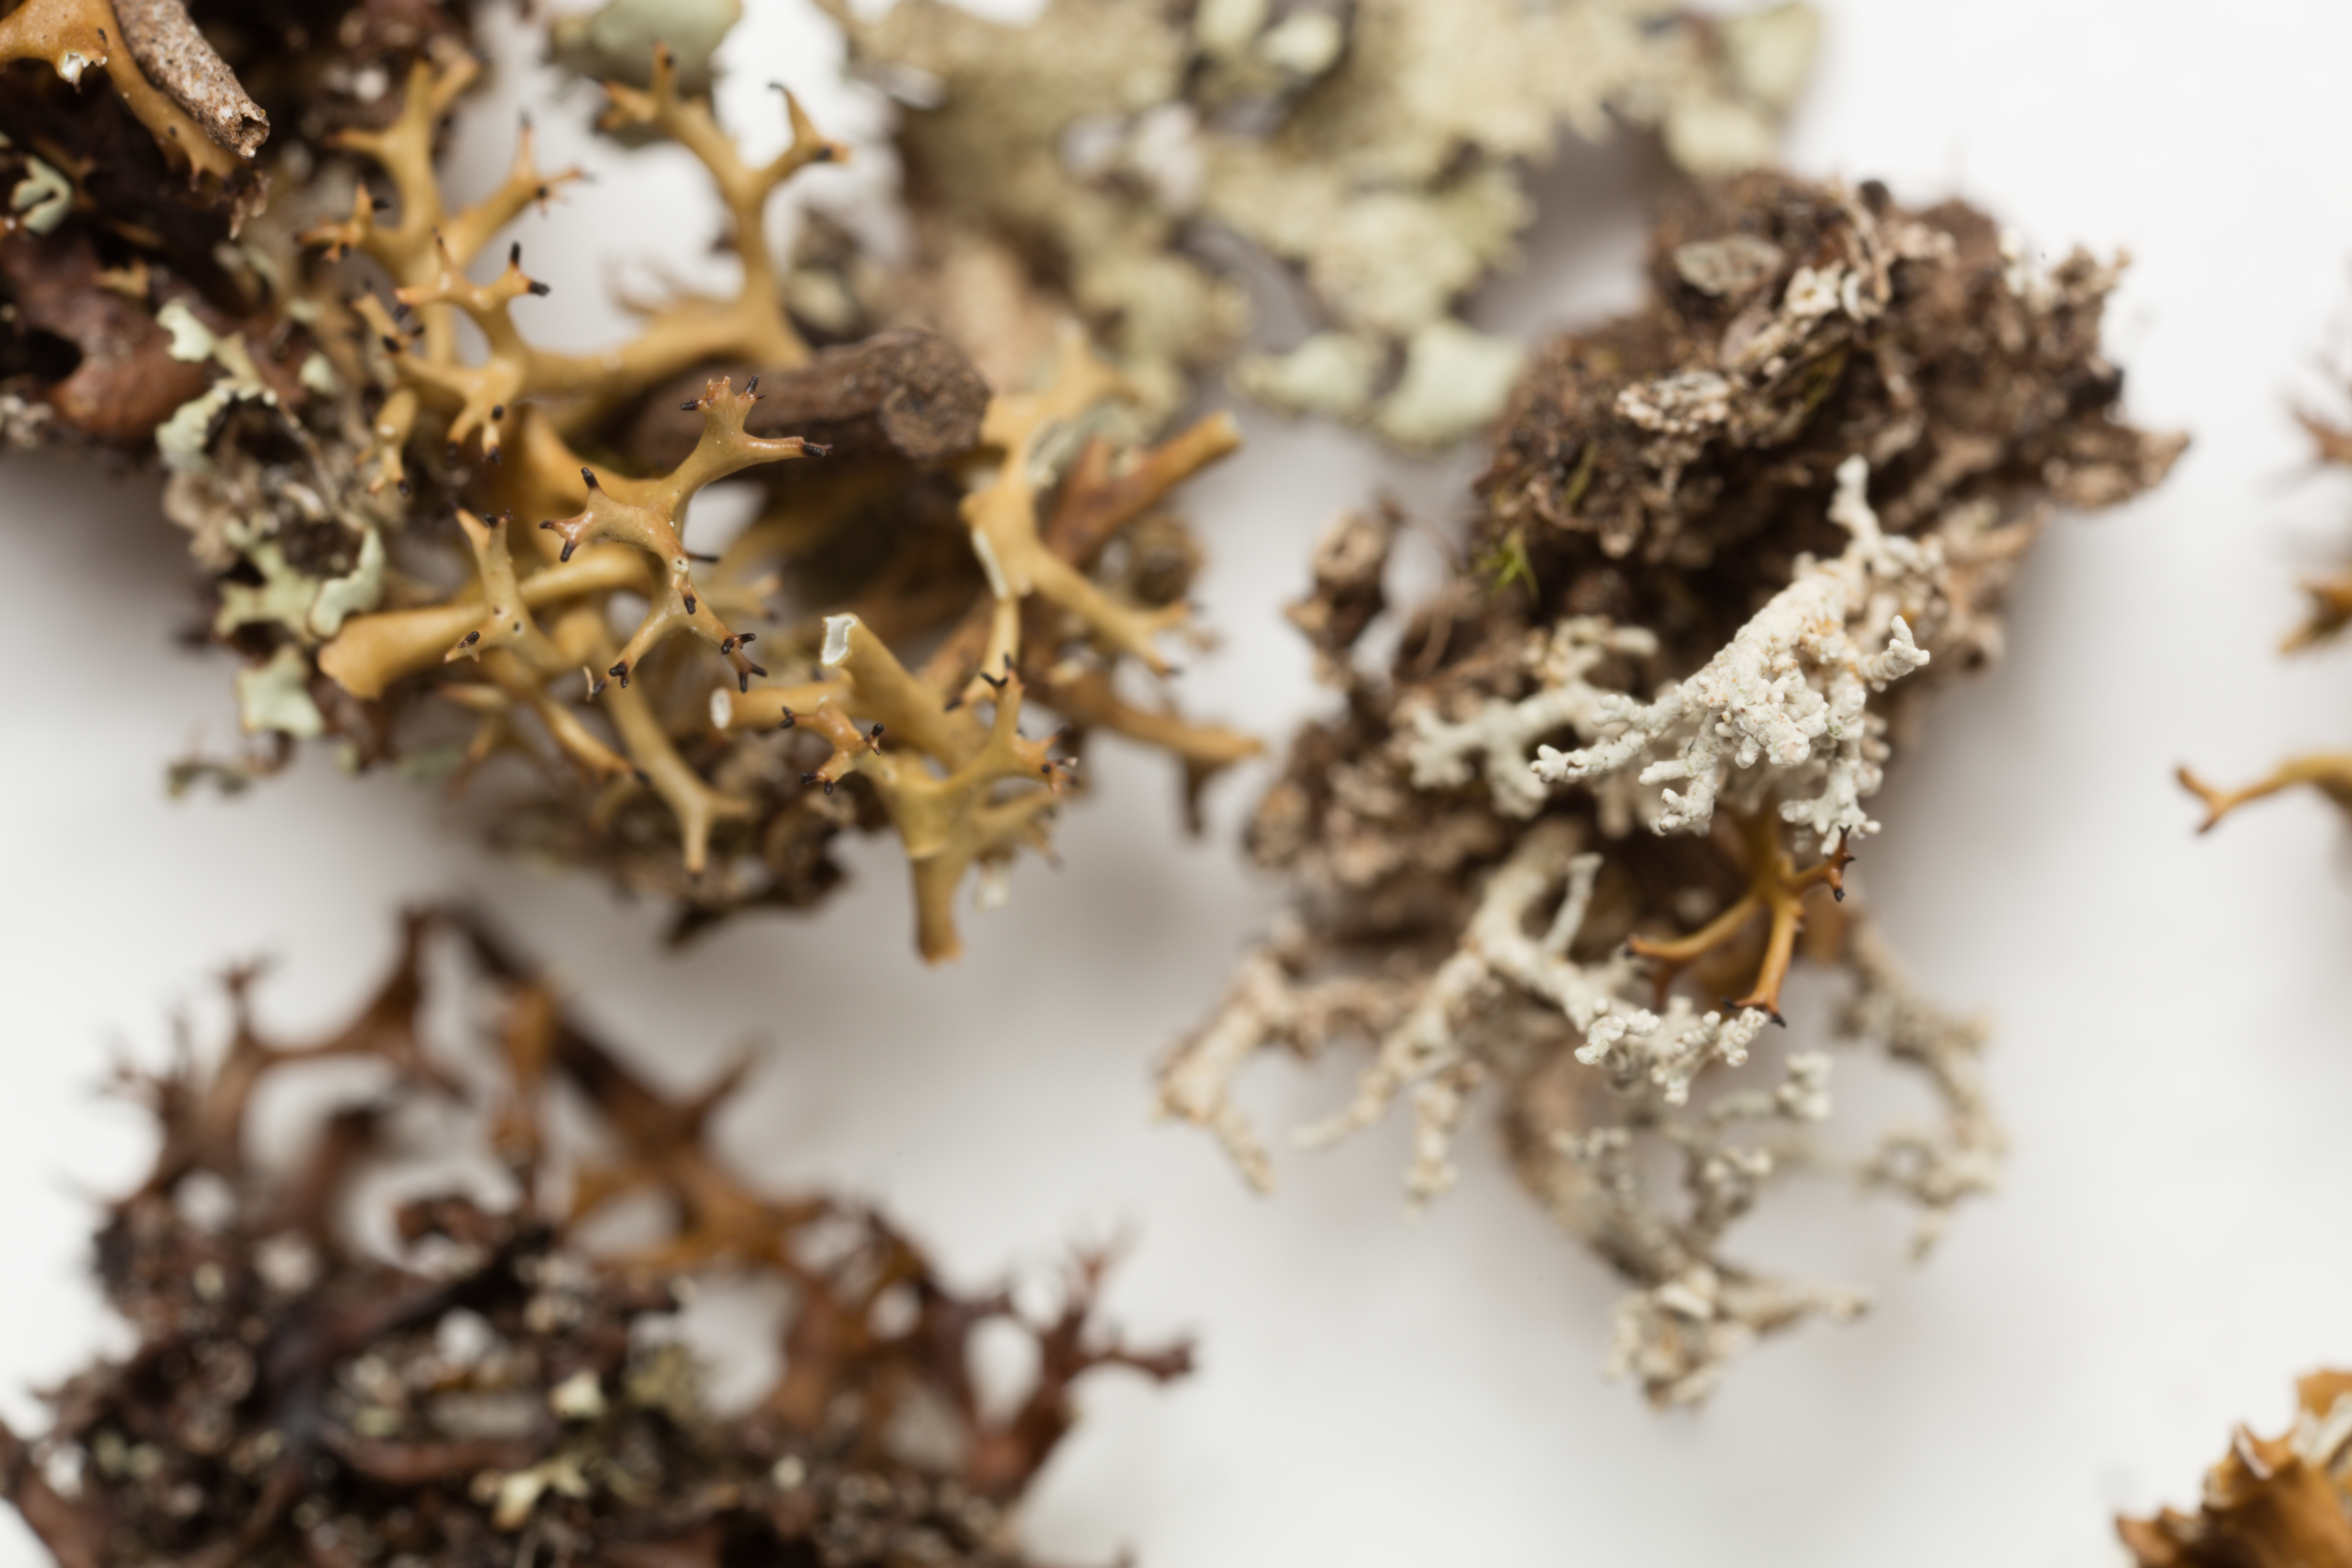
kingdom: Fungi
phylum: Ascomycota
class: Lecanoromycetes
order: Lecanorales
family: Cladoniaceae
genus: Cladia
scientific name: Cladia blanchonii
